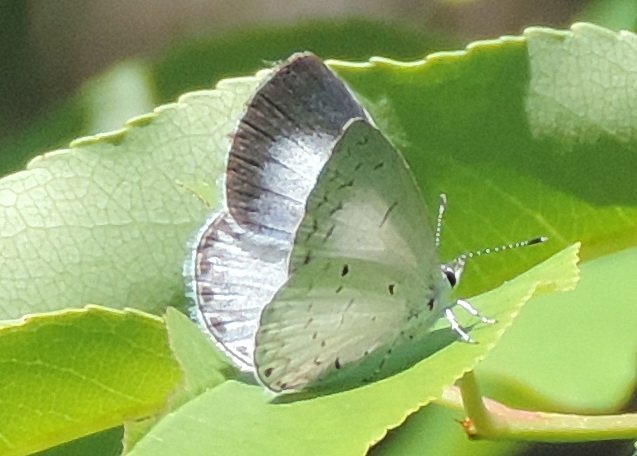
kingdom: Animalia
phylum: Arthropoda
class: Insecta
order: Lepidoptera
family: Lycaenidae
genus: Cyaniris
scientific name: Cyaniris neglecta
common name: Summer Azure
